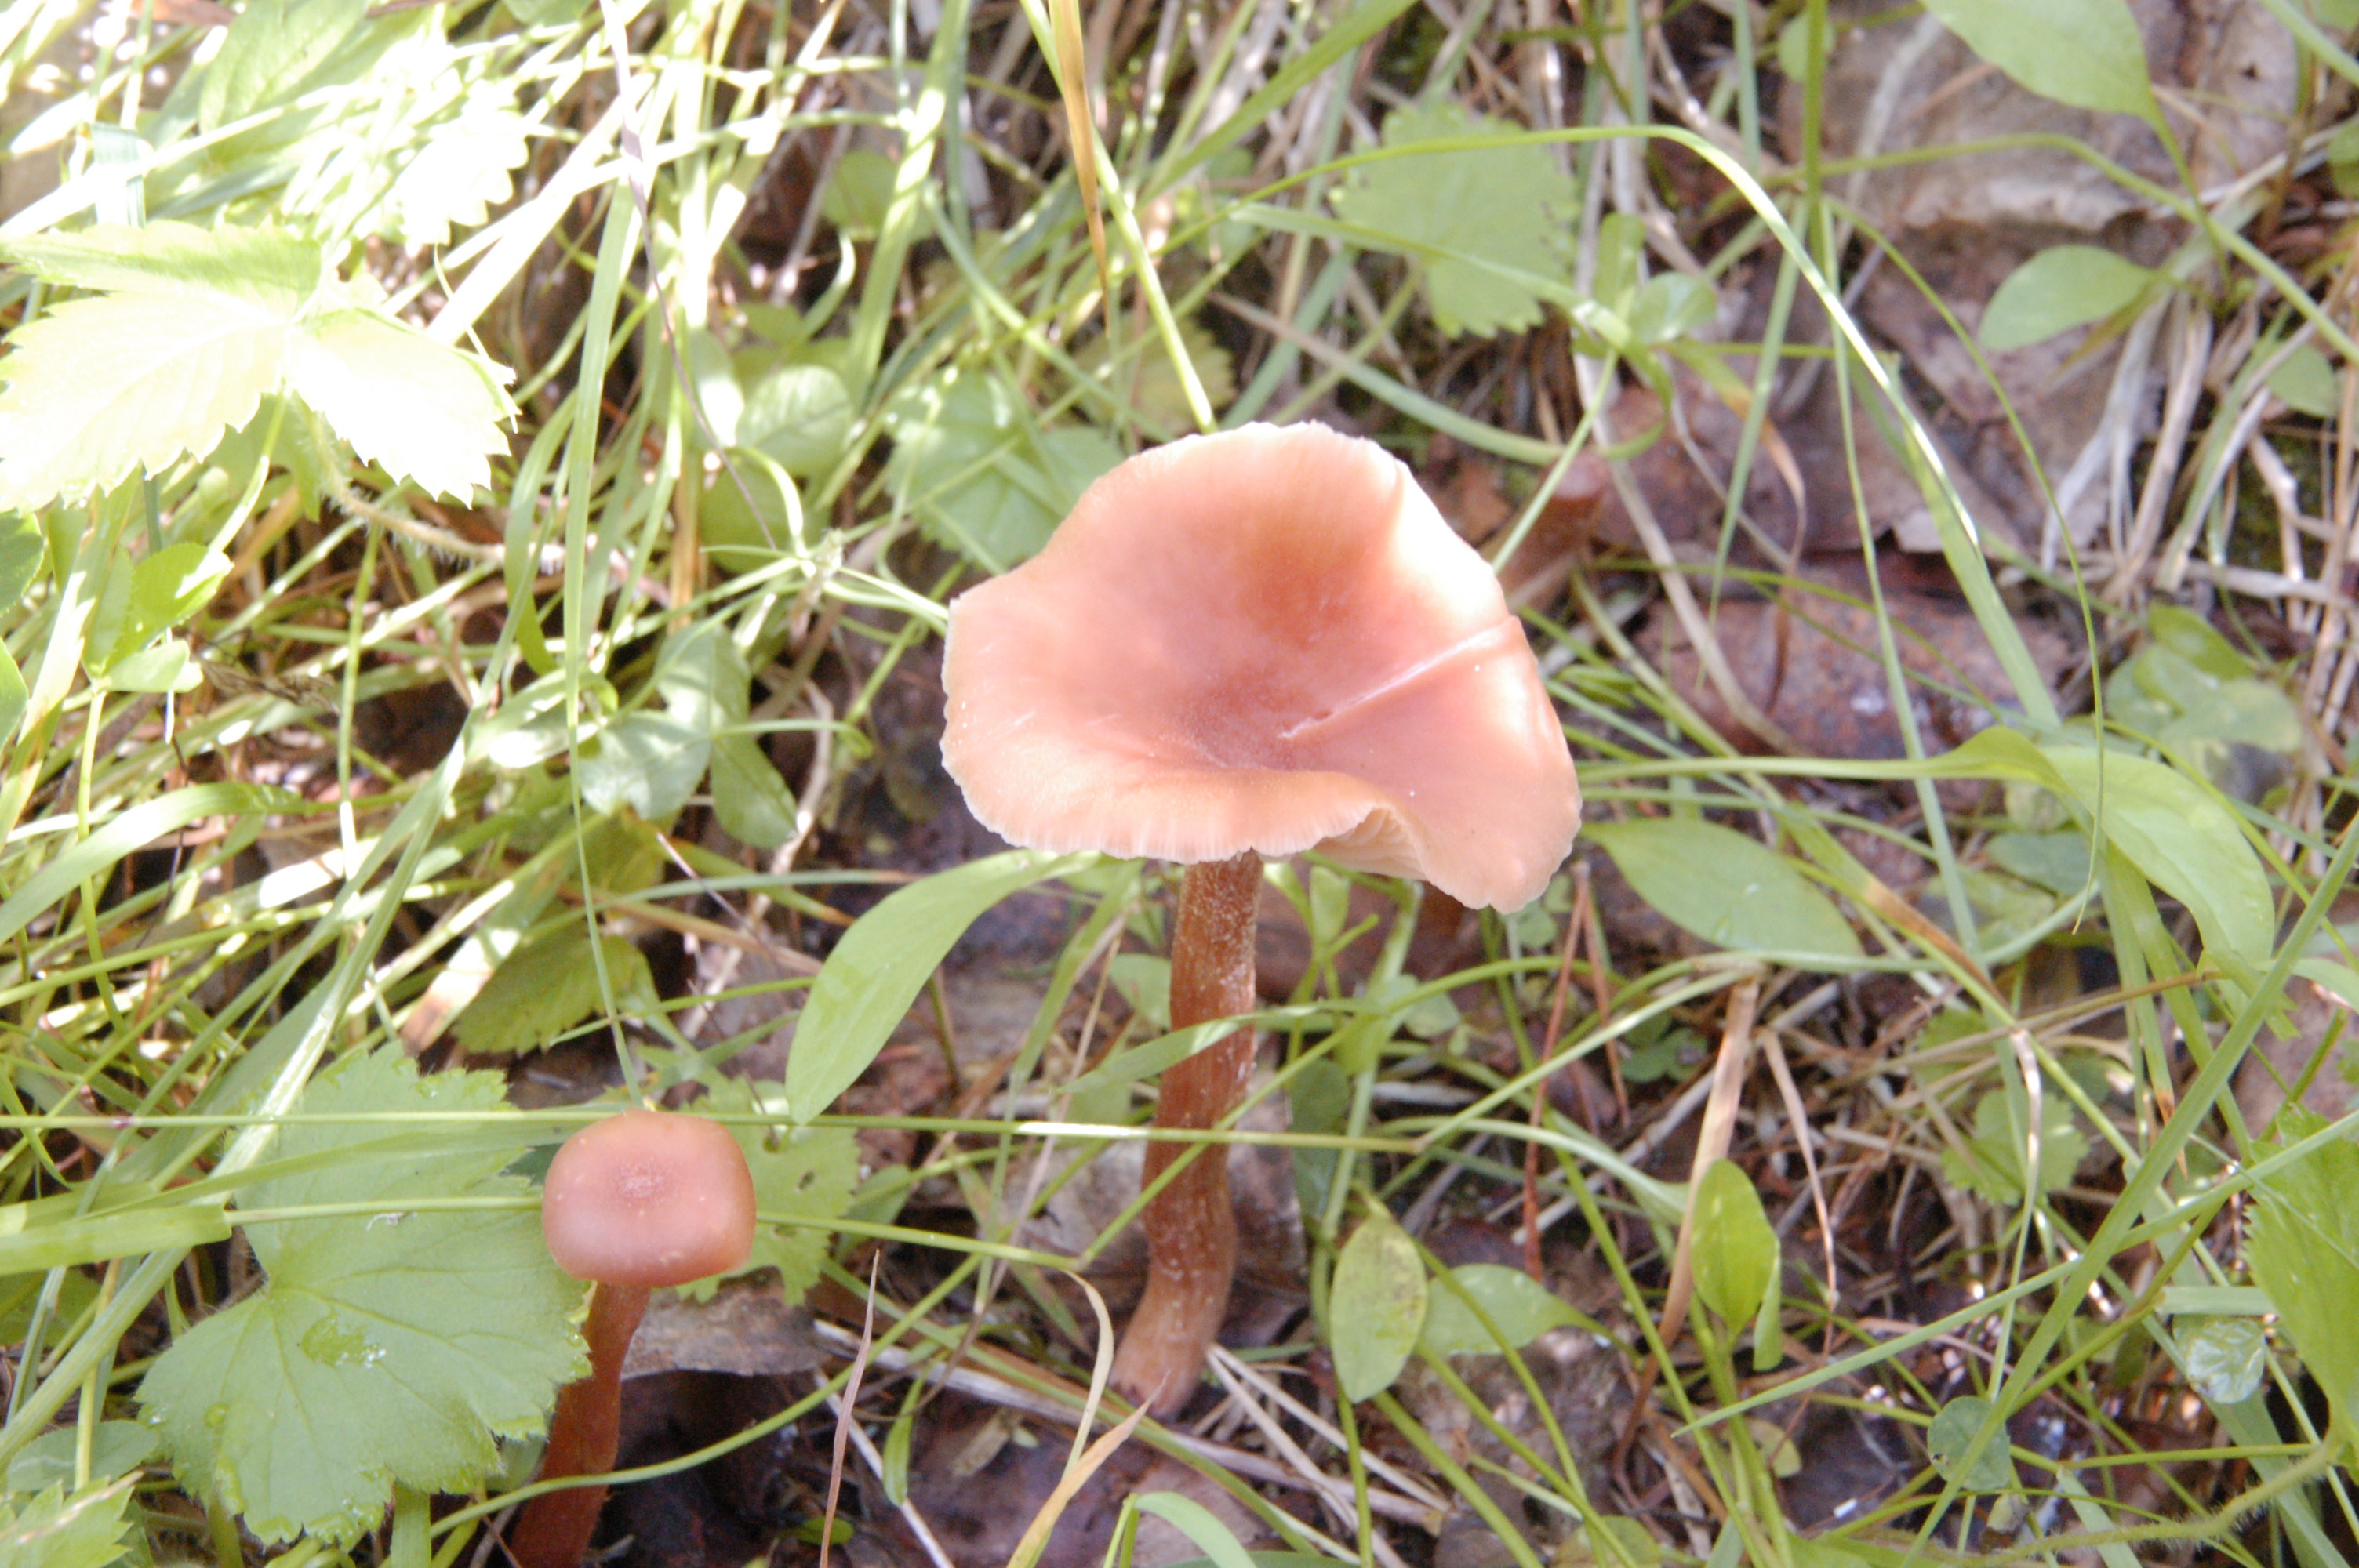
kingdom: Fungi
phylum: Basidiomycota
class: Agaricomycetes
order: Agaricales
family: Hydnangiaceae
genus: Laccaria
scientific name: Laccaria
